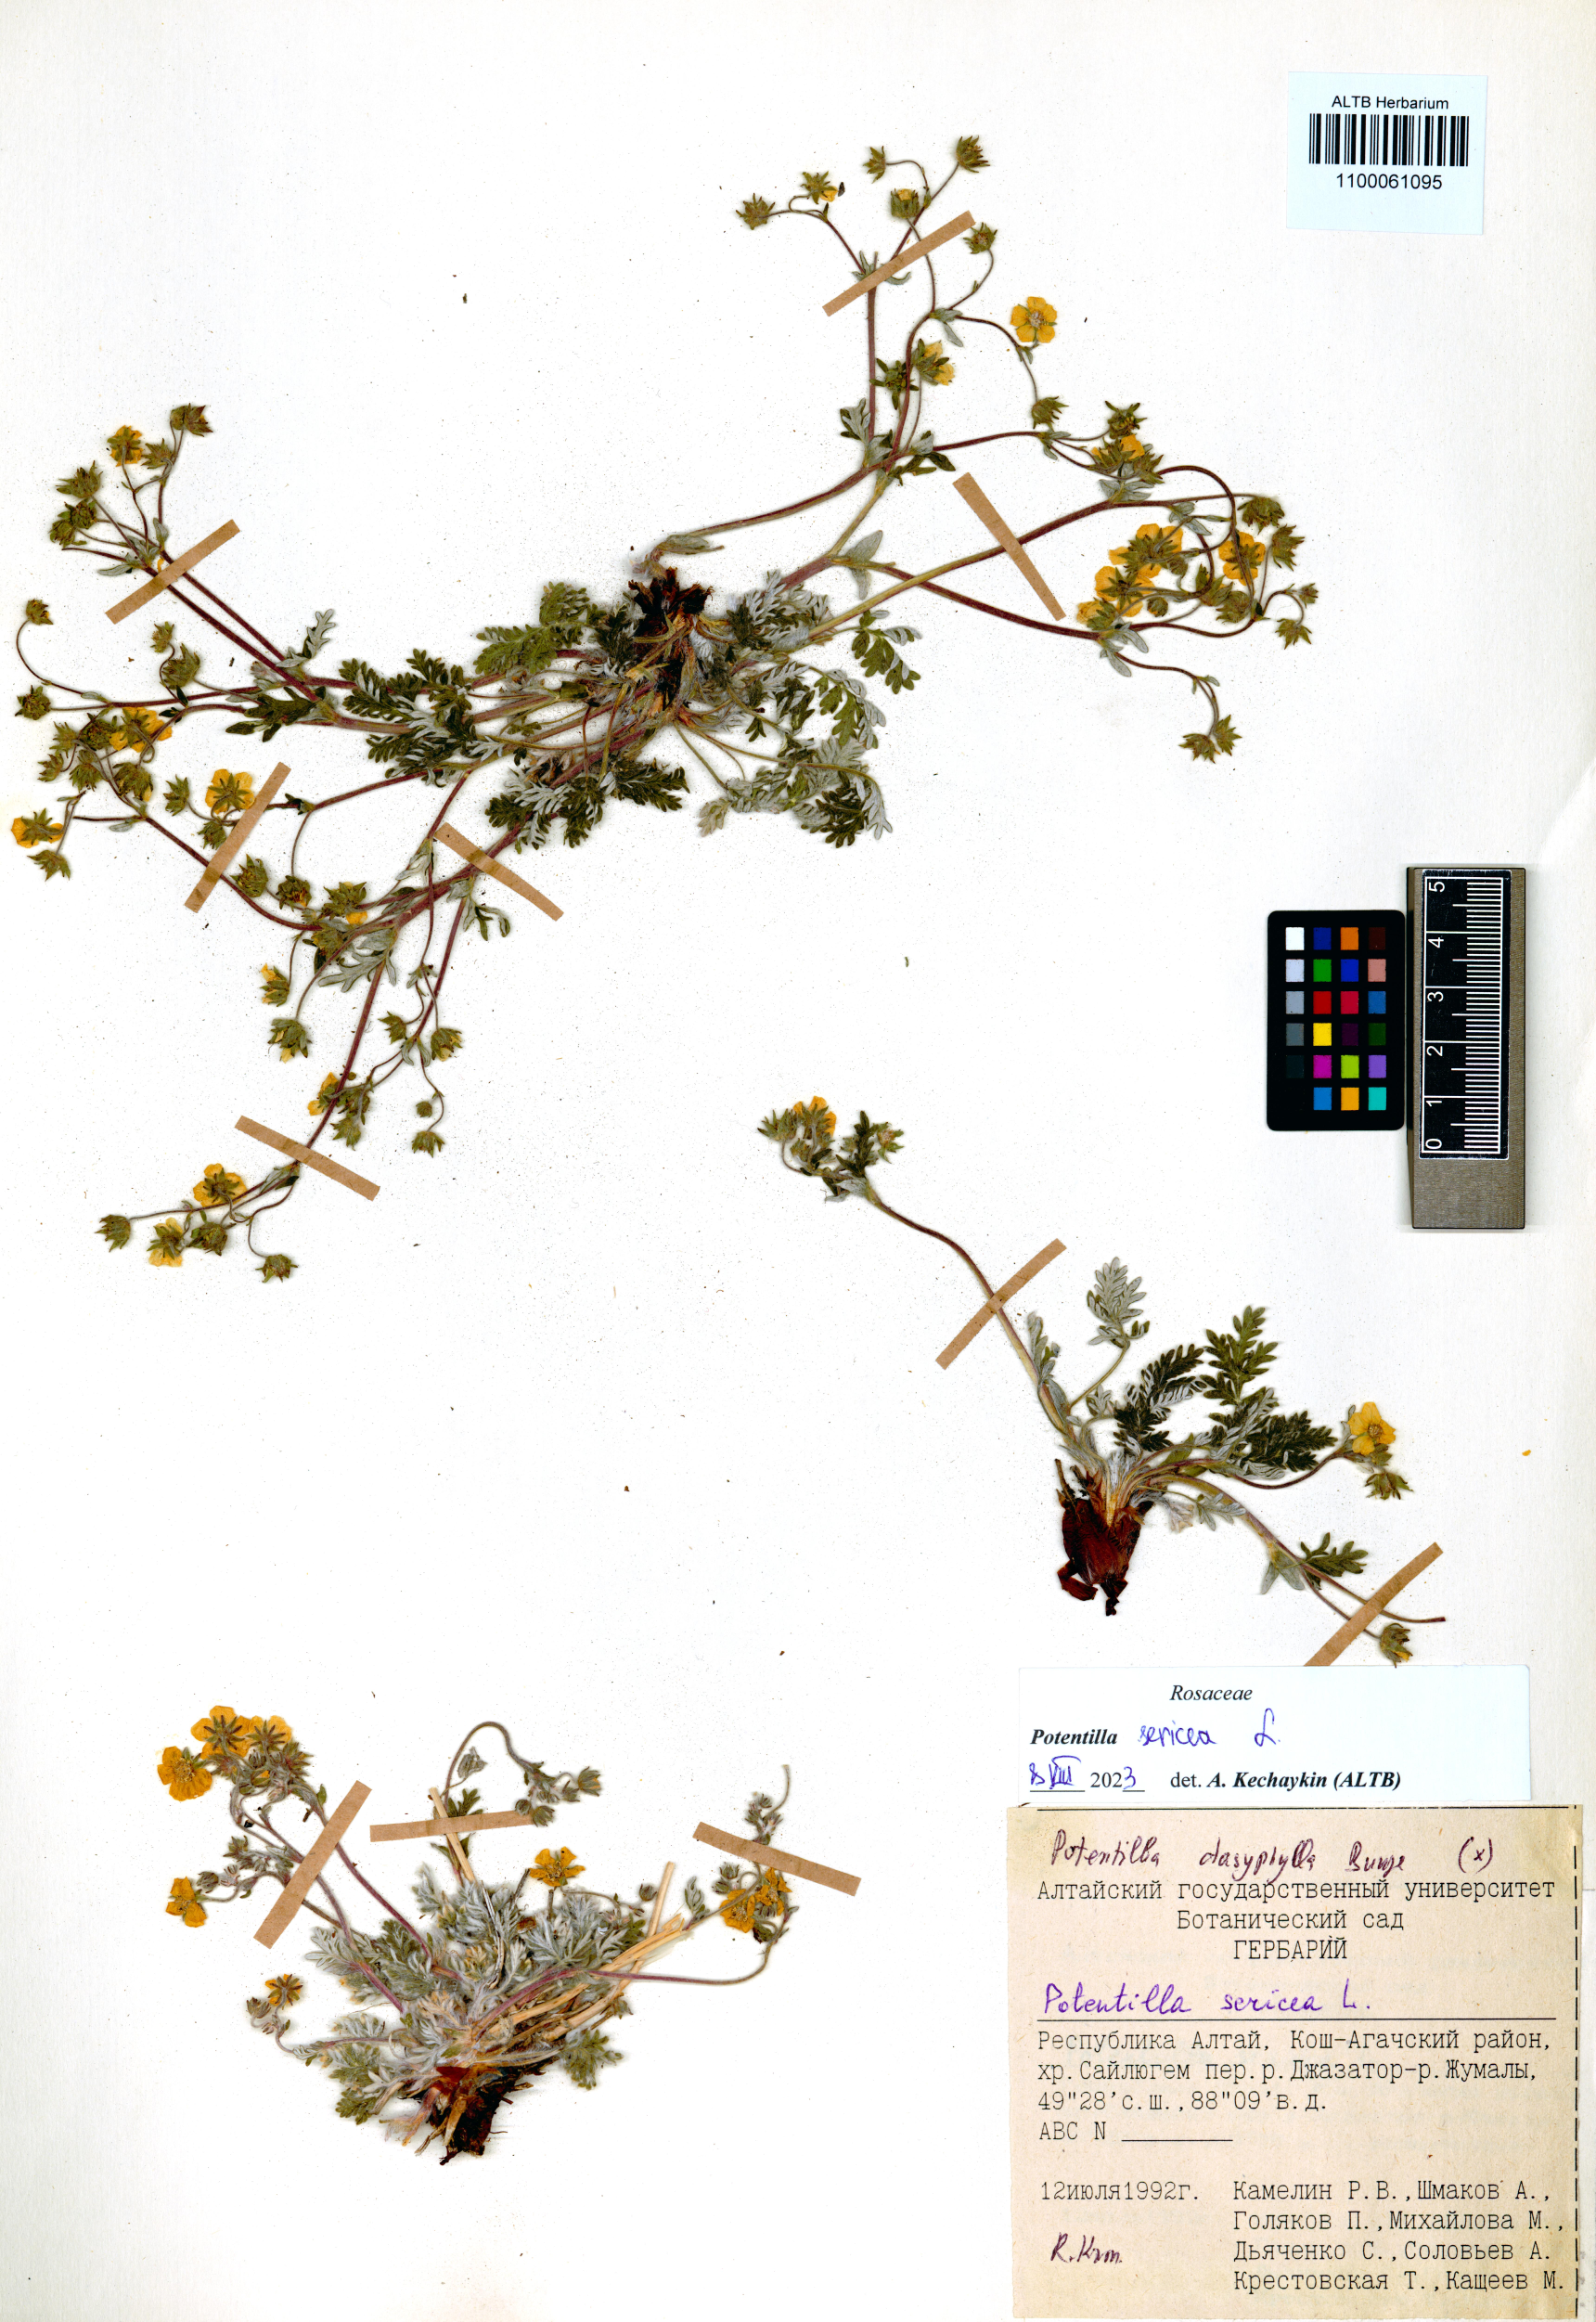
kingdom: Plantae
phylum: Tracheophyta
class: Magnoliopsida
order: Rosales
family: Rosaceae
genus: Potentilla
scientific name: Potentilla sericea
